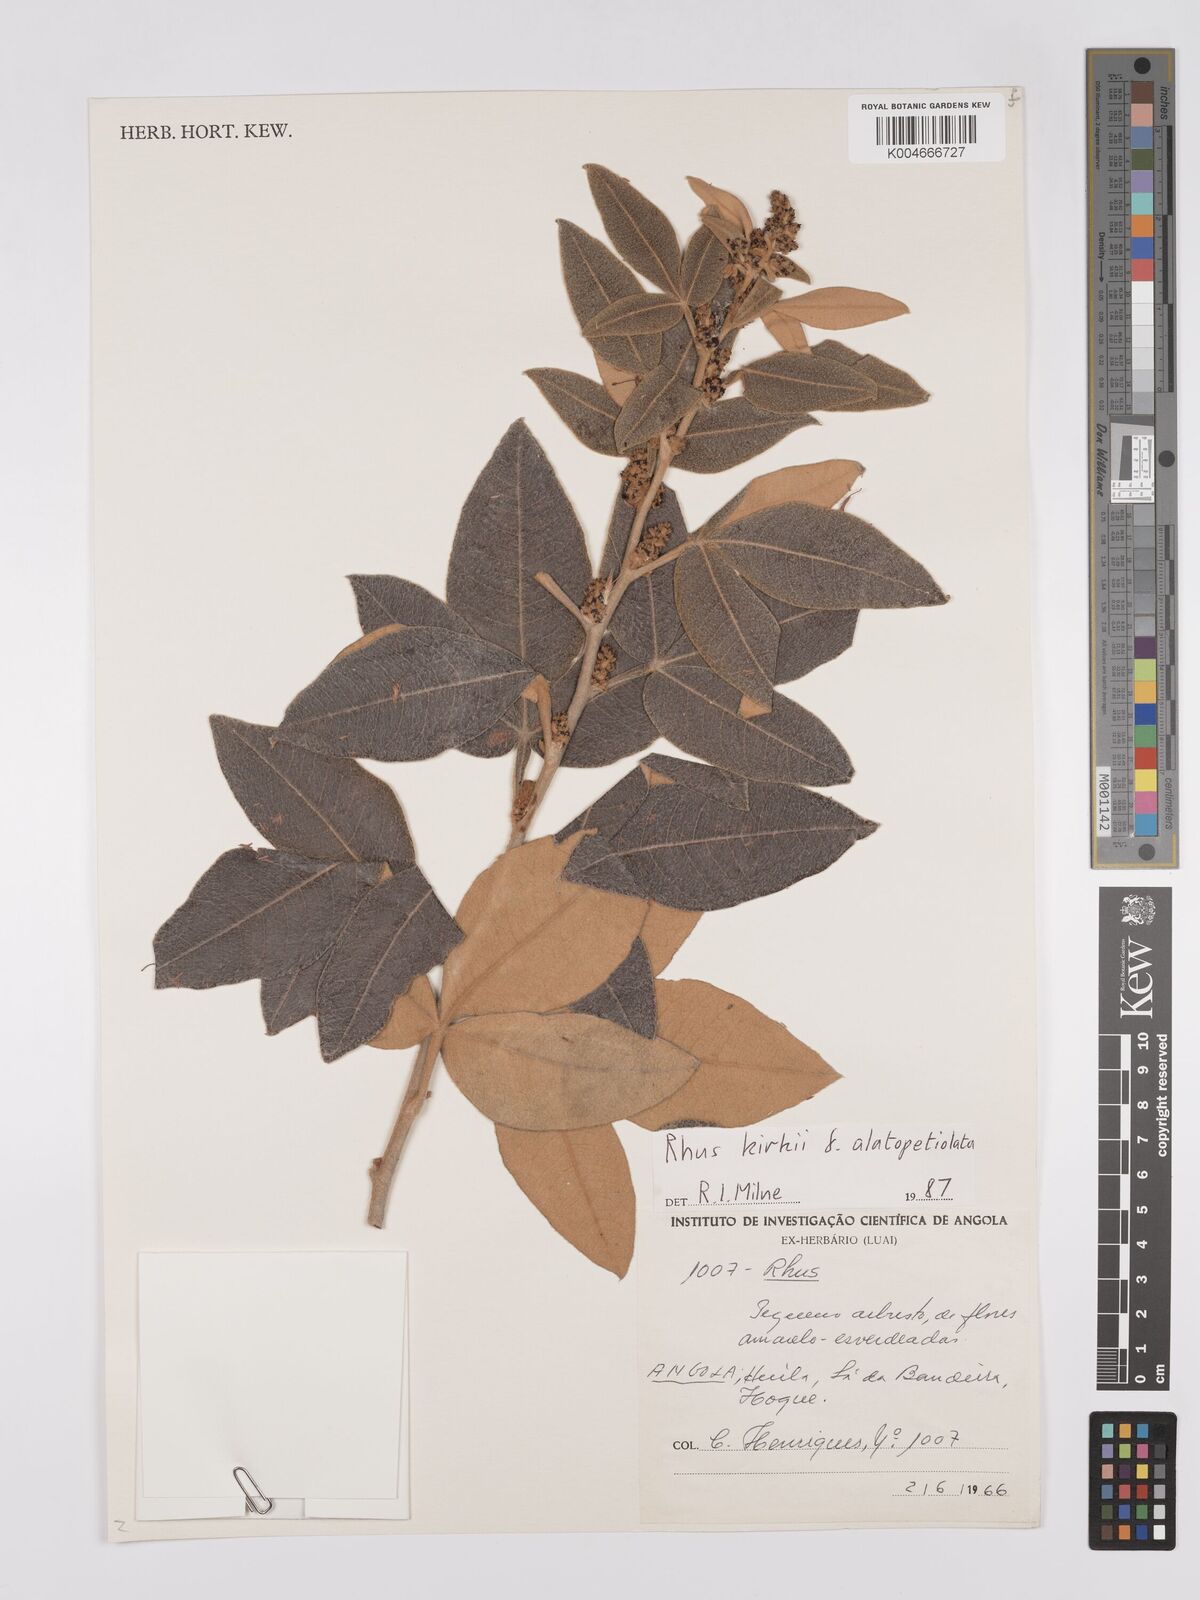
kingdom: Plantae
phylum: Tracheophyta
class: Magnoliopsida
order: Sapindales
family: Anacardiaceae
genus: Searsia
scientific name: Searsia kirkii
